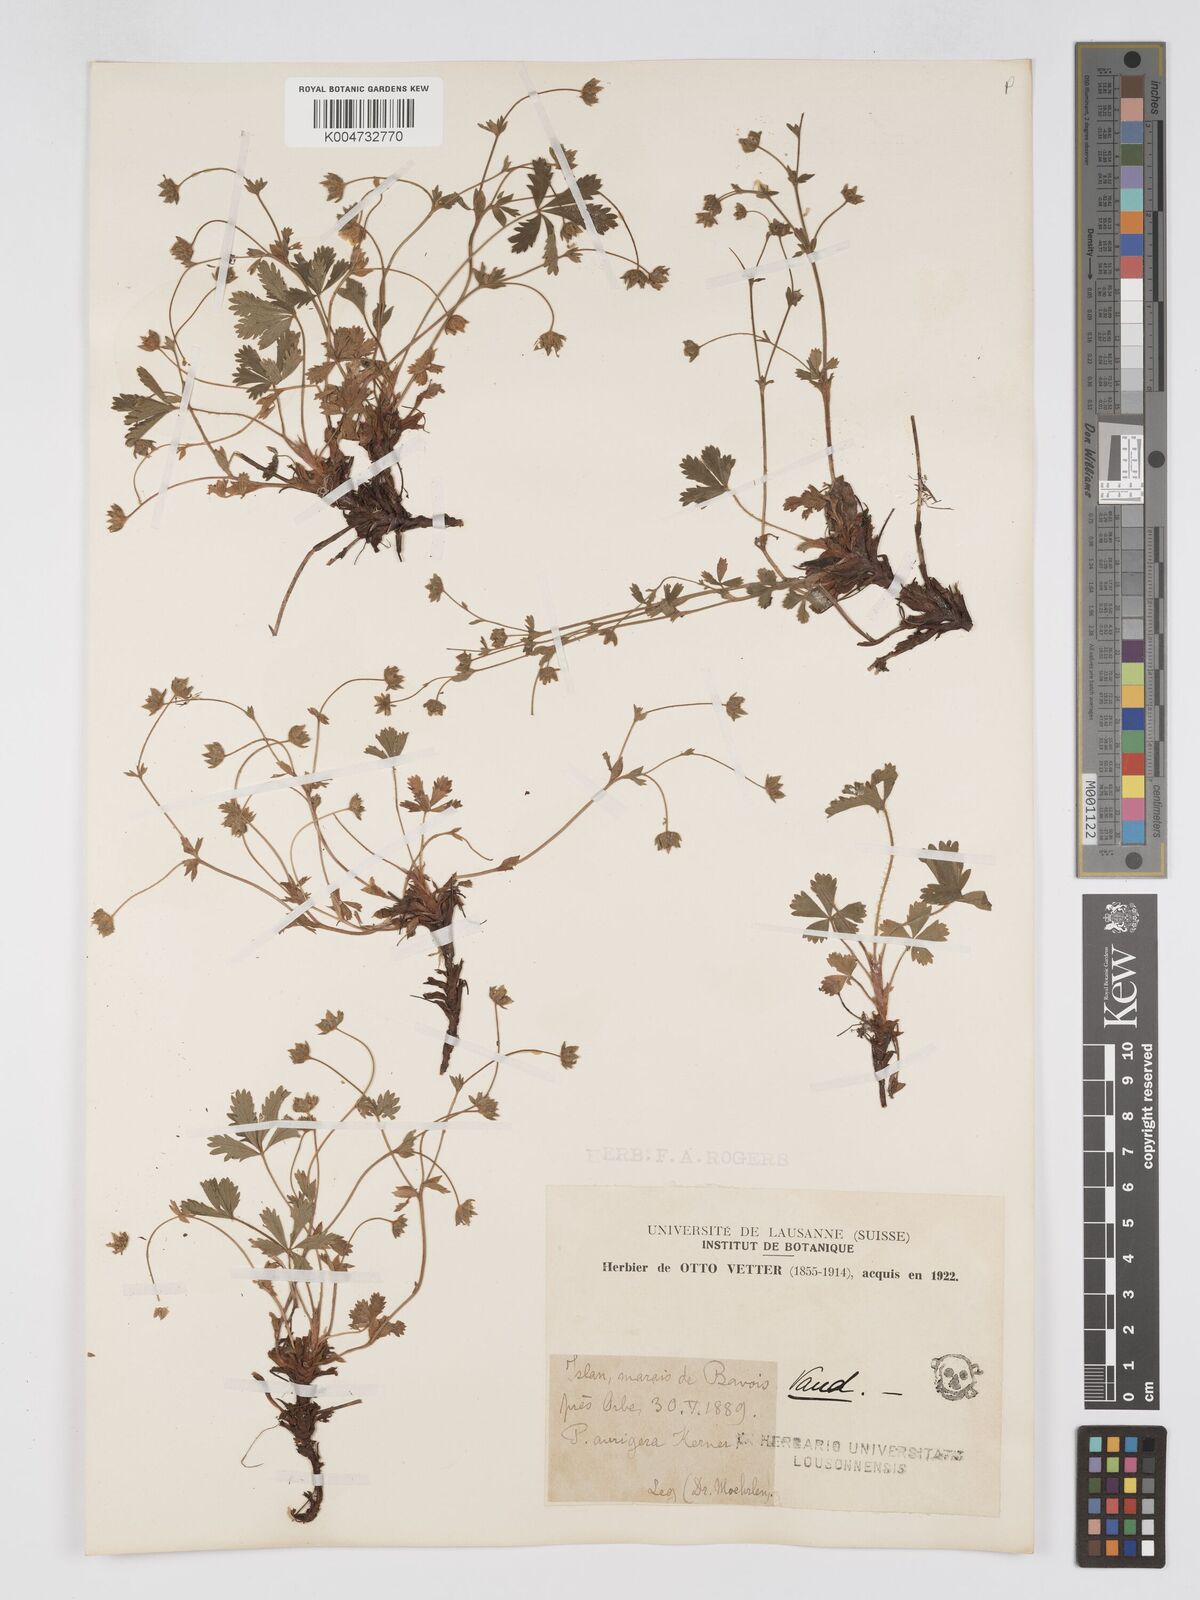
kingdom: Plantae
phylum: Tracheophyta
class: Magnoliopsida
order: Rosales
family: Rosaceae
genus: Potentilla
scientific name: Potentilla
